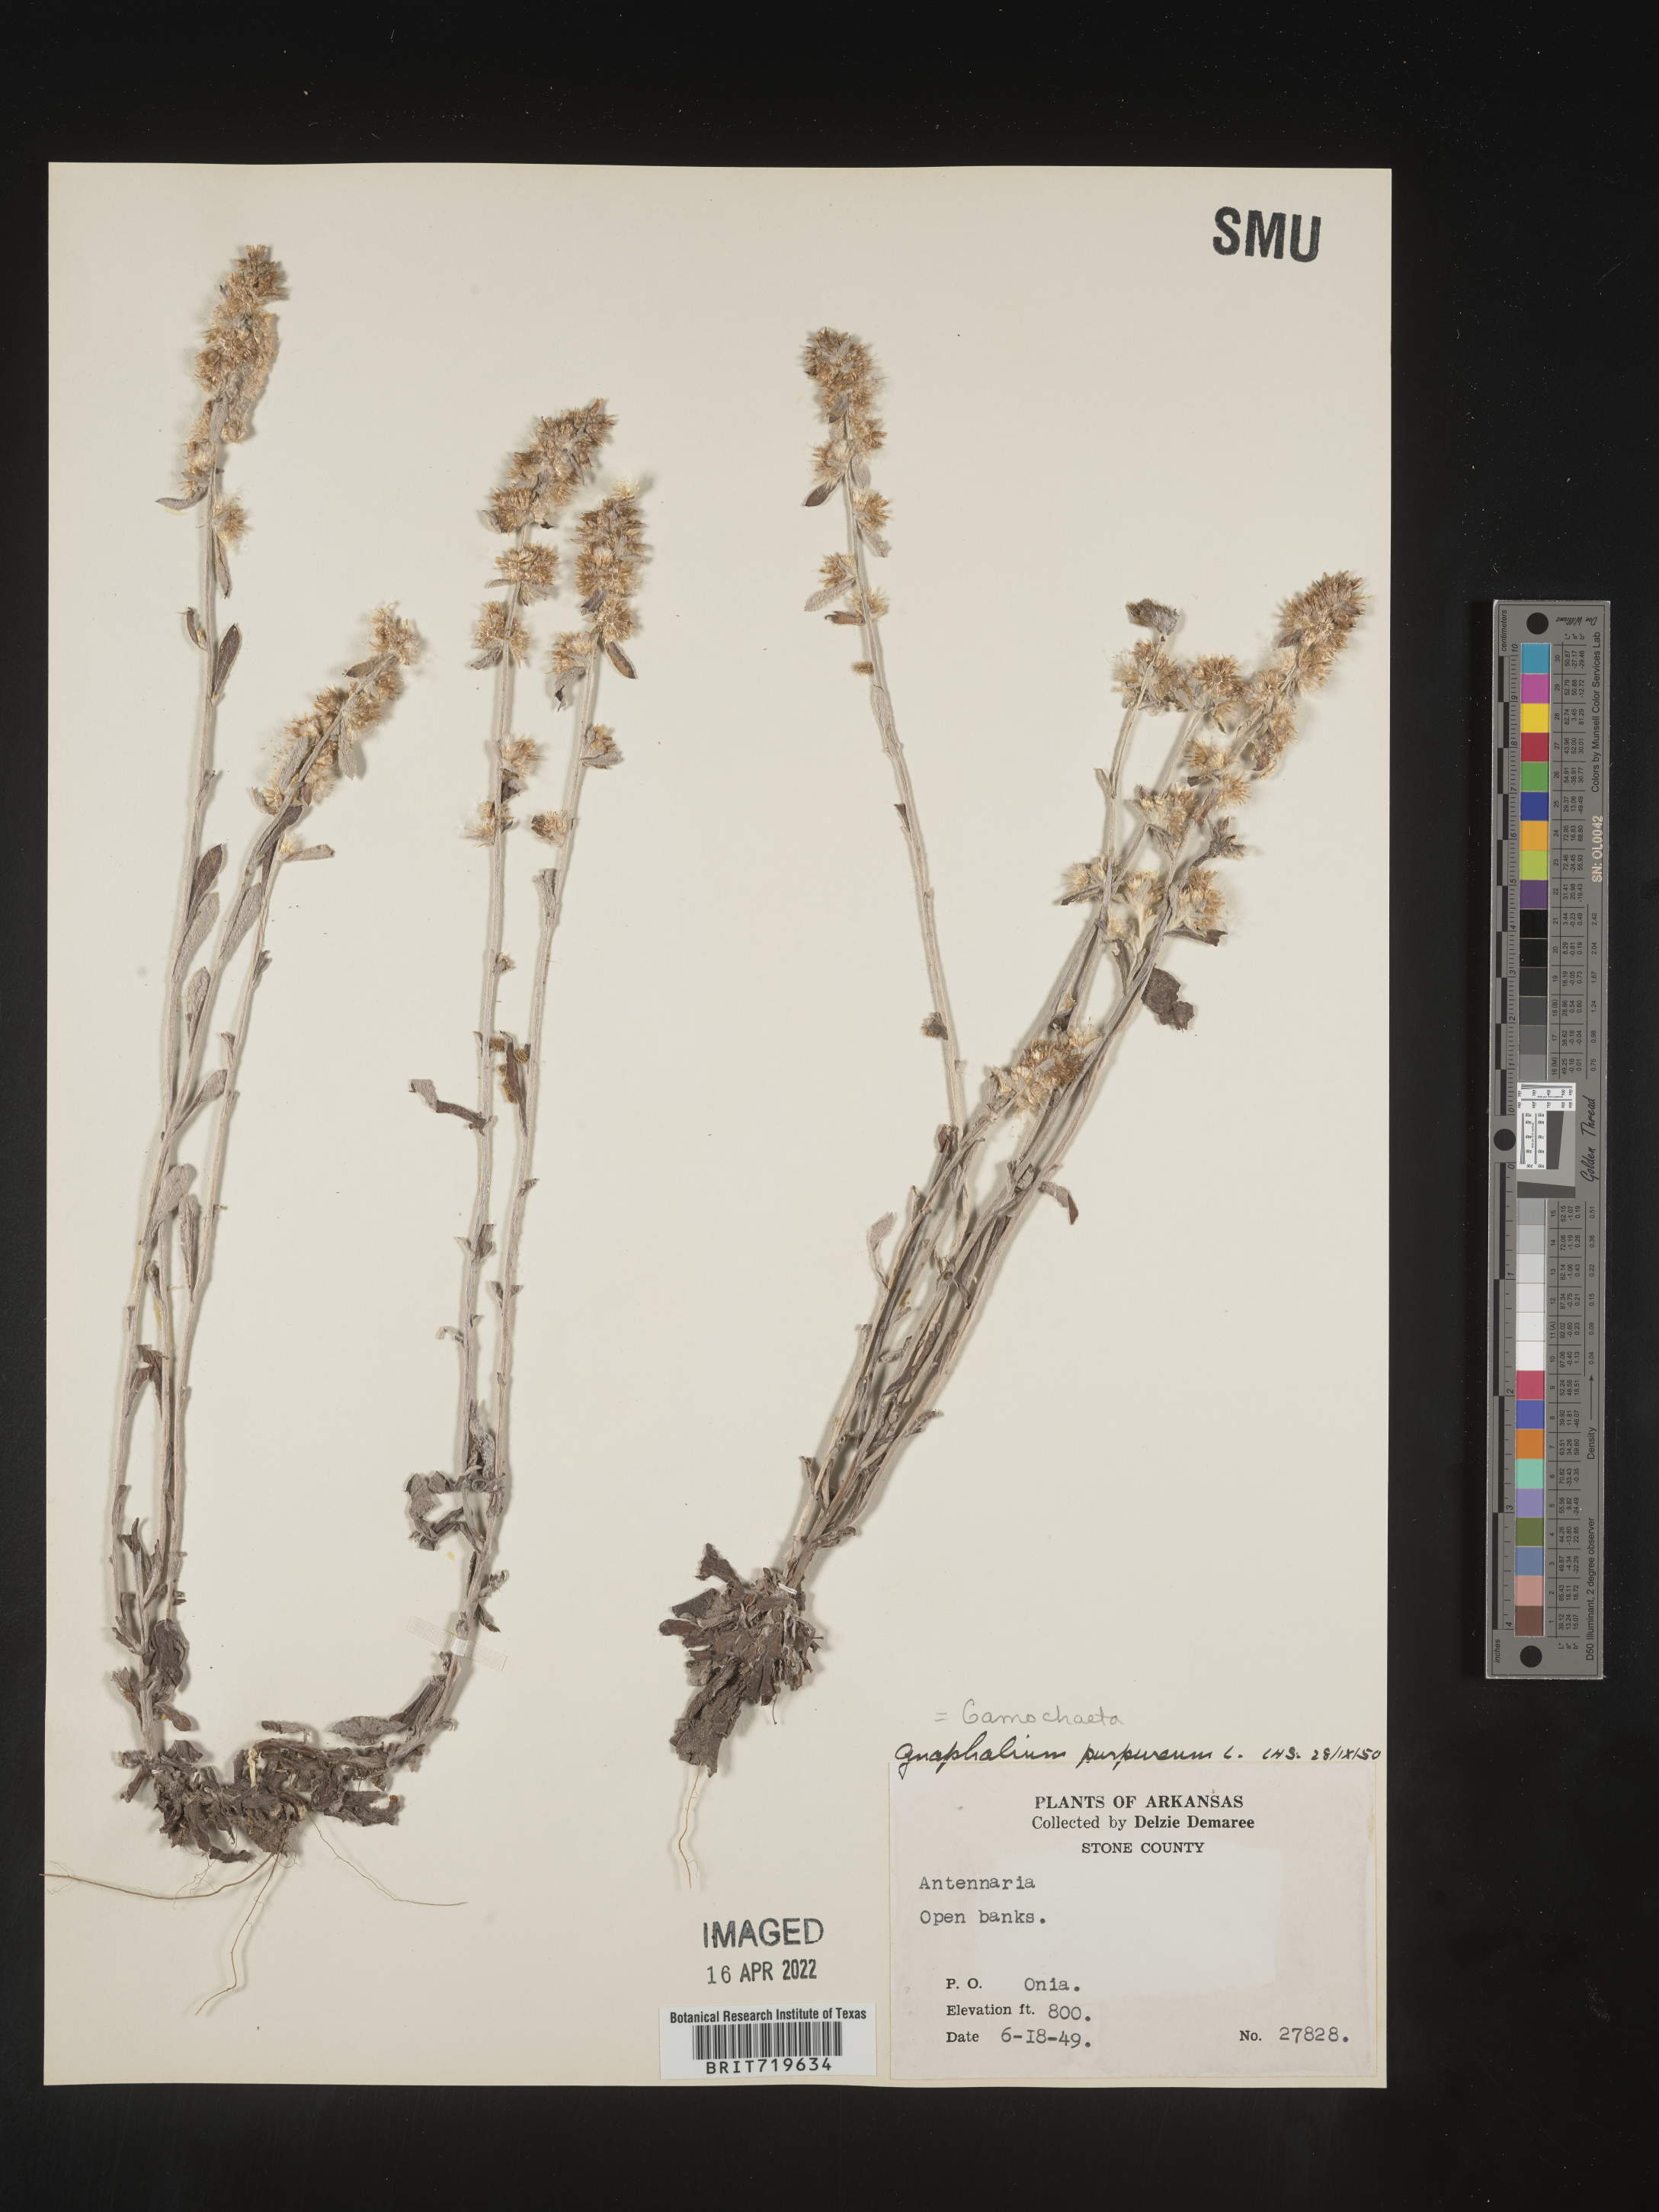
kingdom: Plantae
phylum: Tracheophyta
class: Magnoliopsida
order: Asterales
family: Asteraceae
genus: Gamochaeta
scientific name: Gamochaeta purpurea
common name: Purple cudweed
